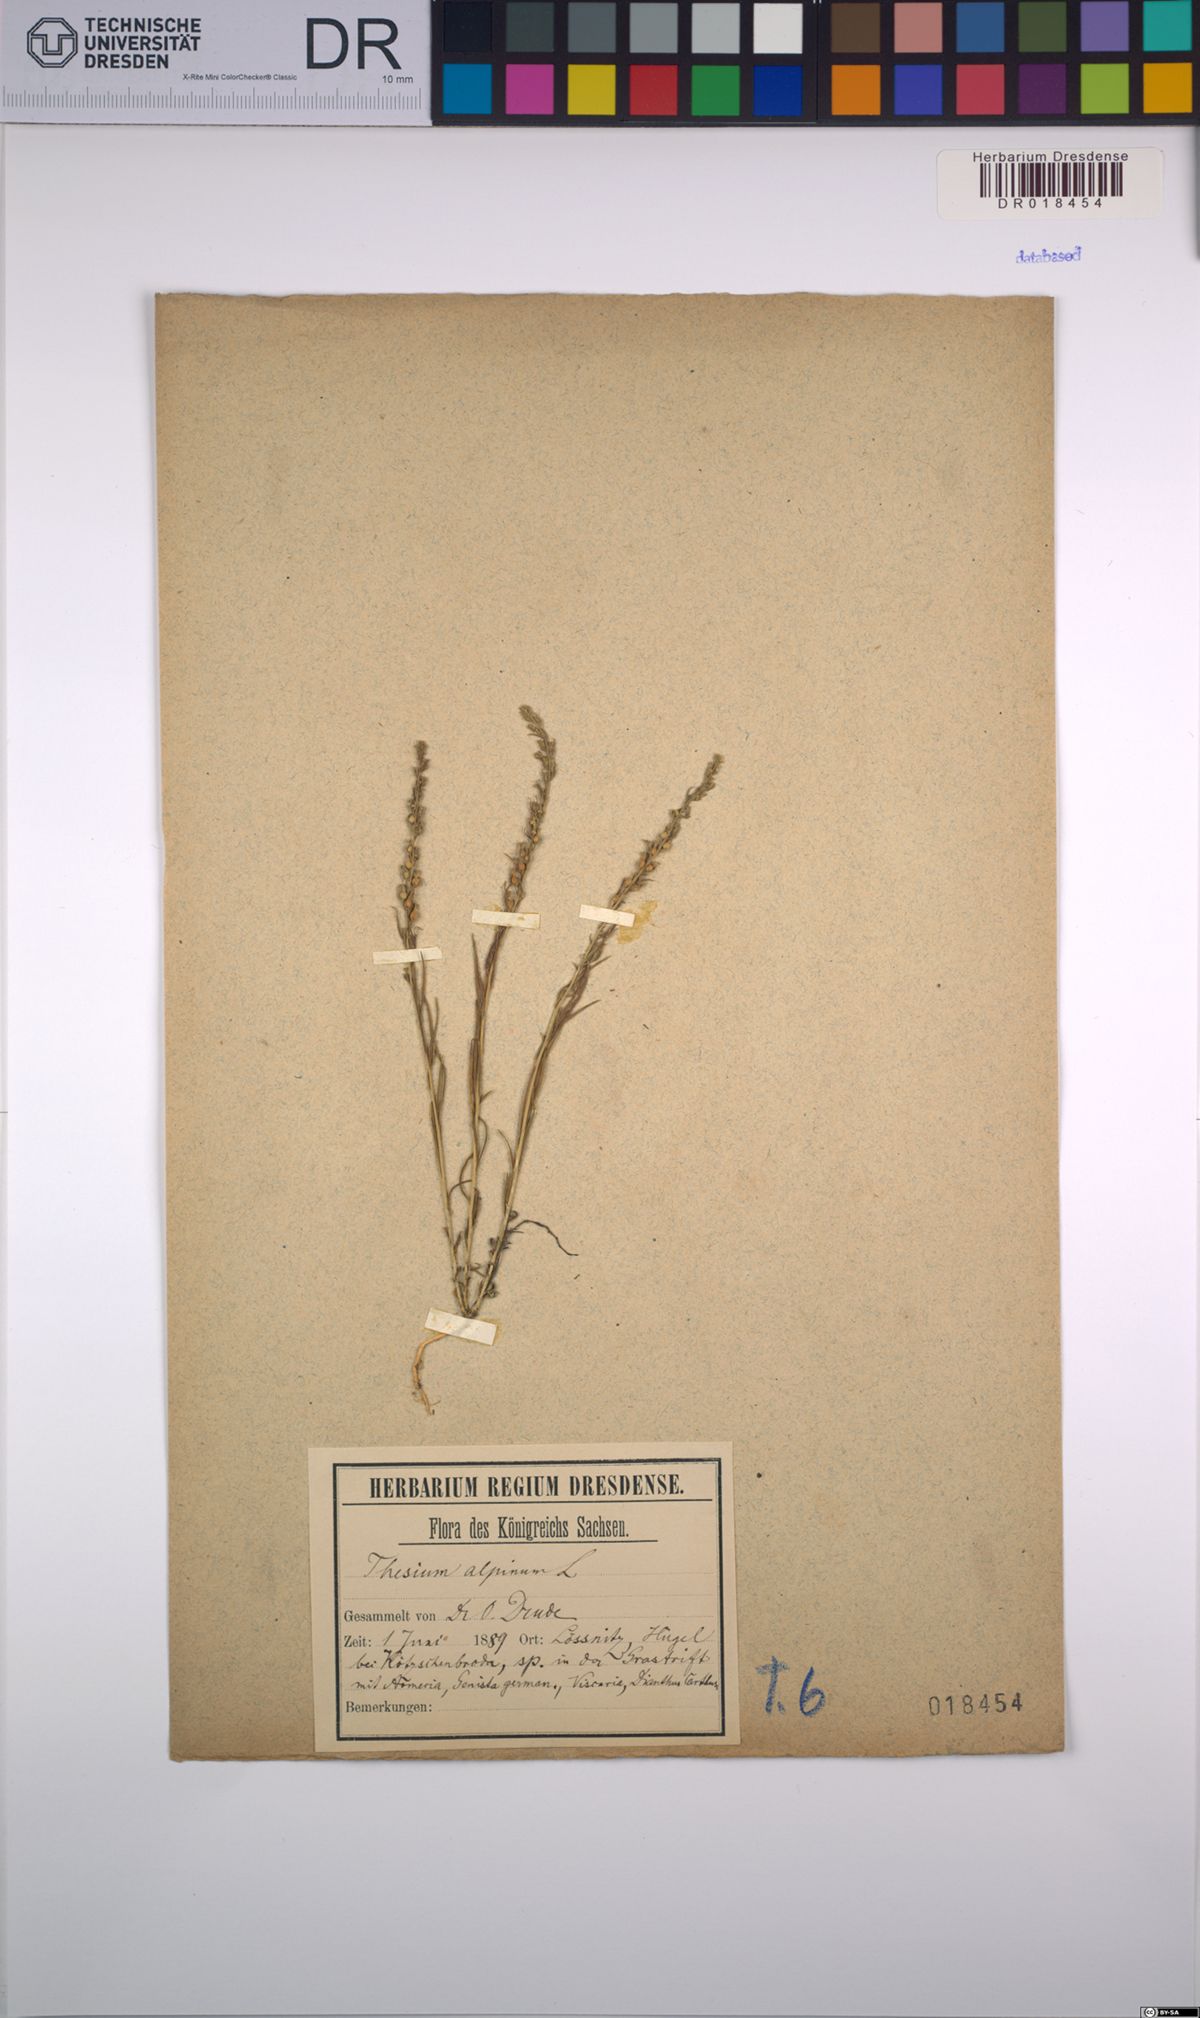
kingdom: Plantae
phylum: Tracheophyta
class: Magnoliopsida
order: Santalales
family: Thesiaceae
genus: Thesium
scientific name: Thesium alpinum
